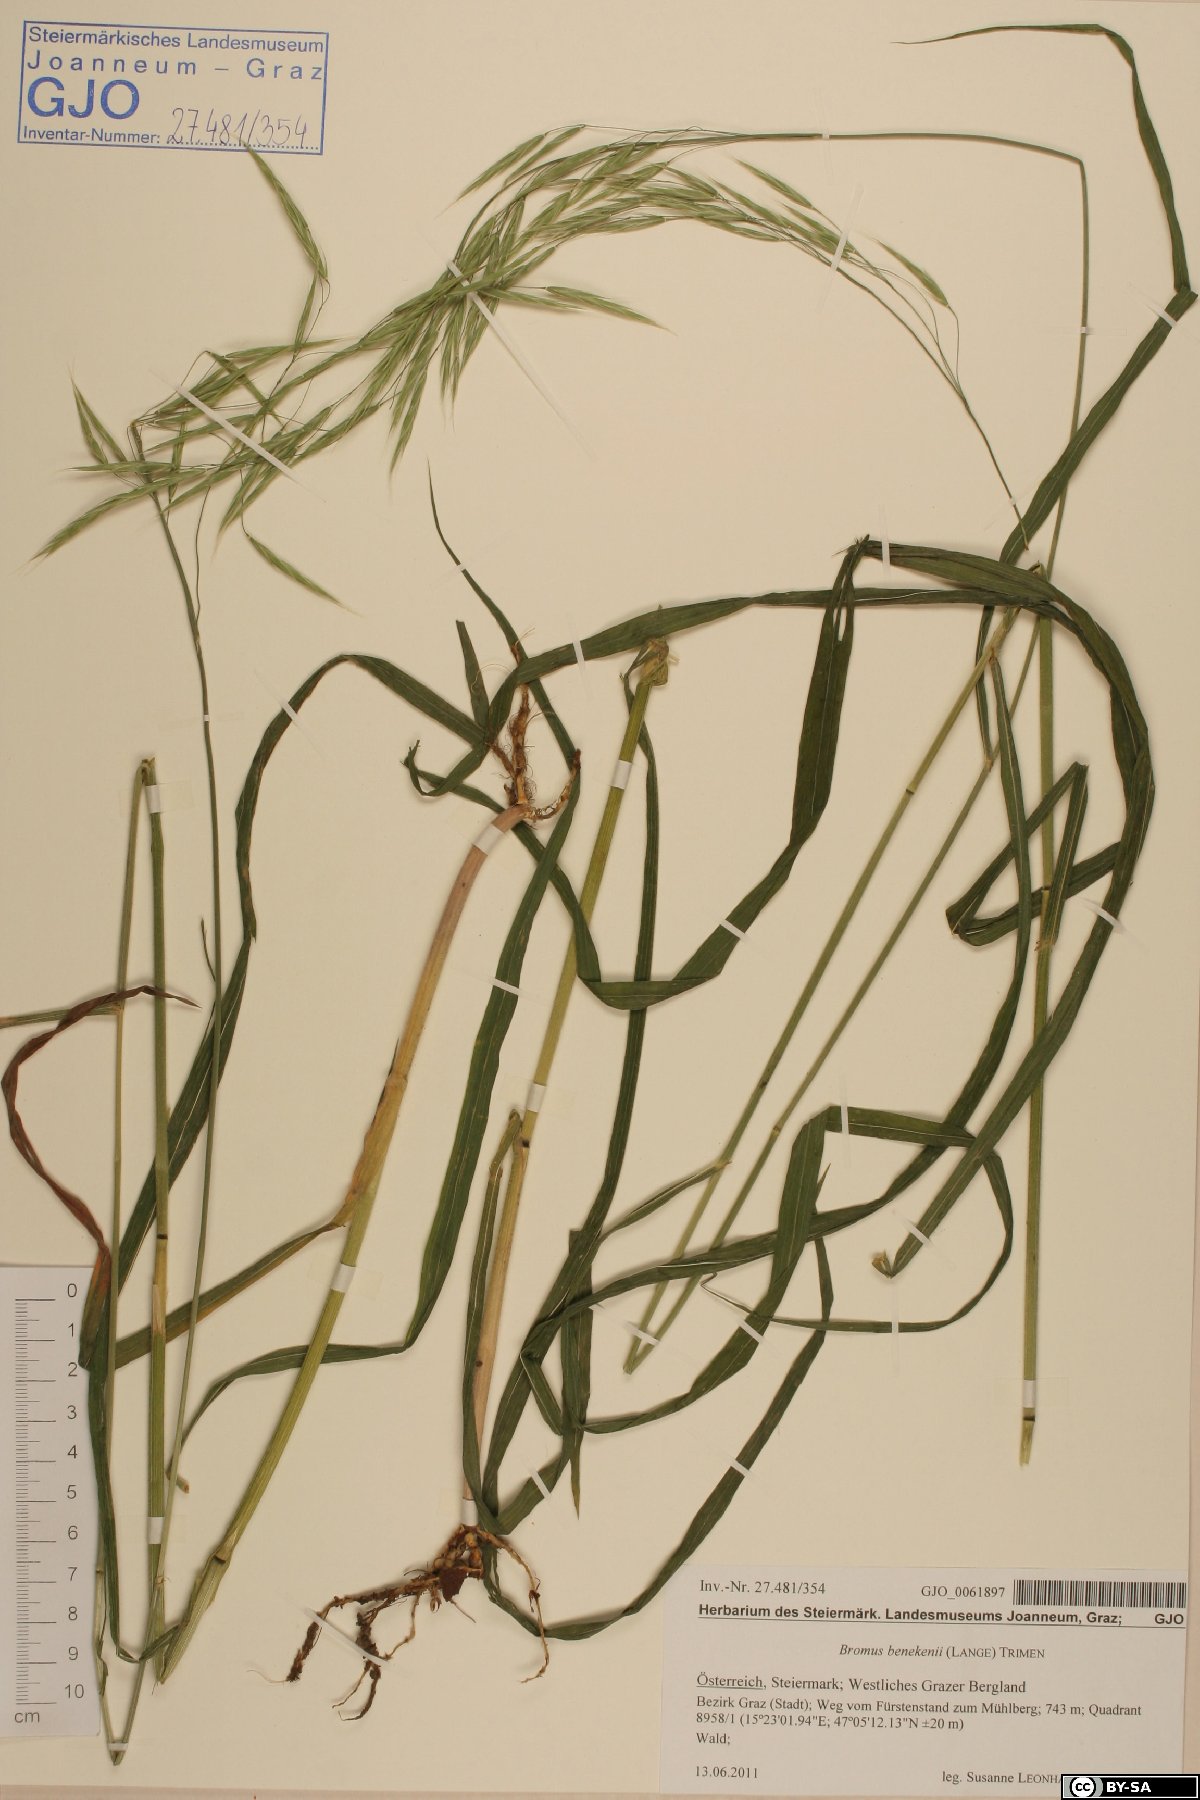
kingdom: Plantae
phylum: Tracheophyta
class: Liliopsida
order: Poales
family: Poaceae
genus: Bromus
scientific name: Bromus benekenii
